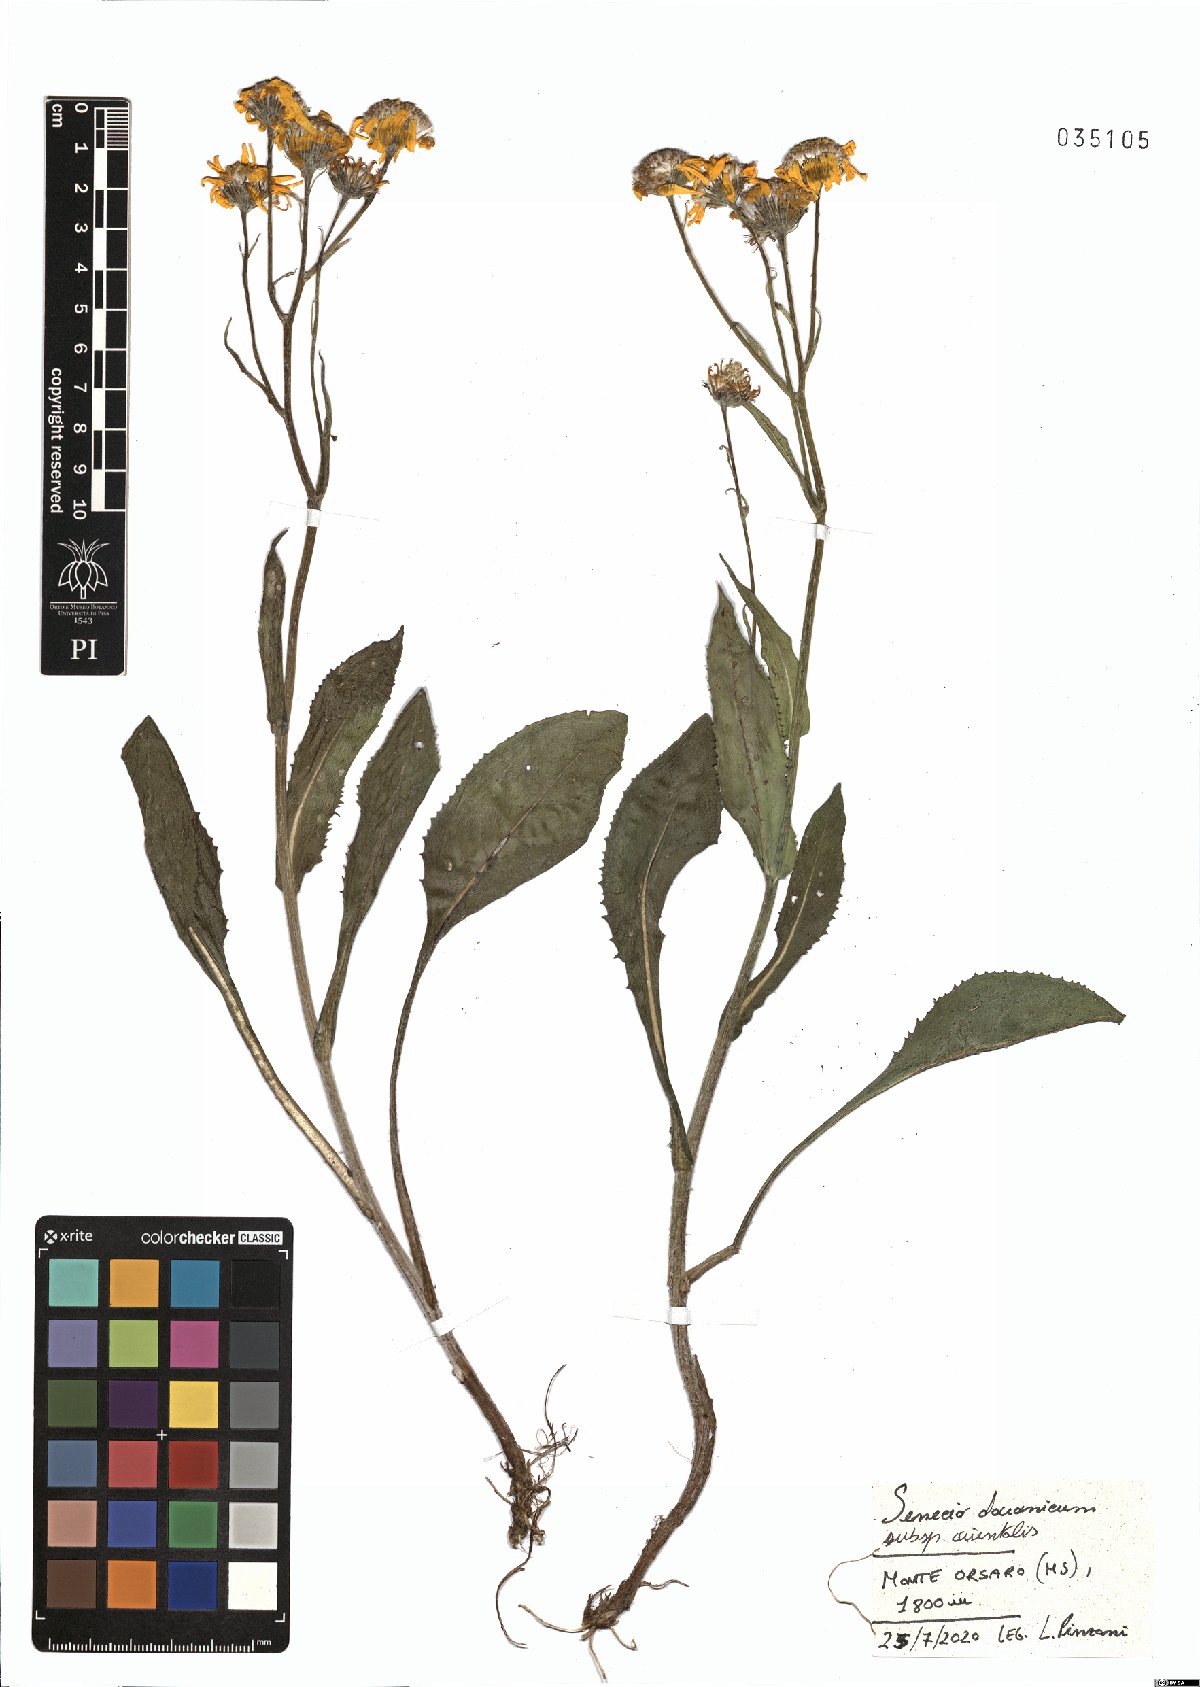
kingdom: Plantae
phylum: Tracheophyta
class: Magnoliopsida
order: Asterales
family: Asteraceae
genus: Senecio
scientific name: Senecio doronicum
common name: Chamois ragwort
